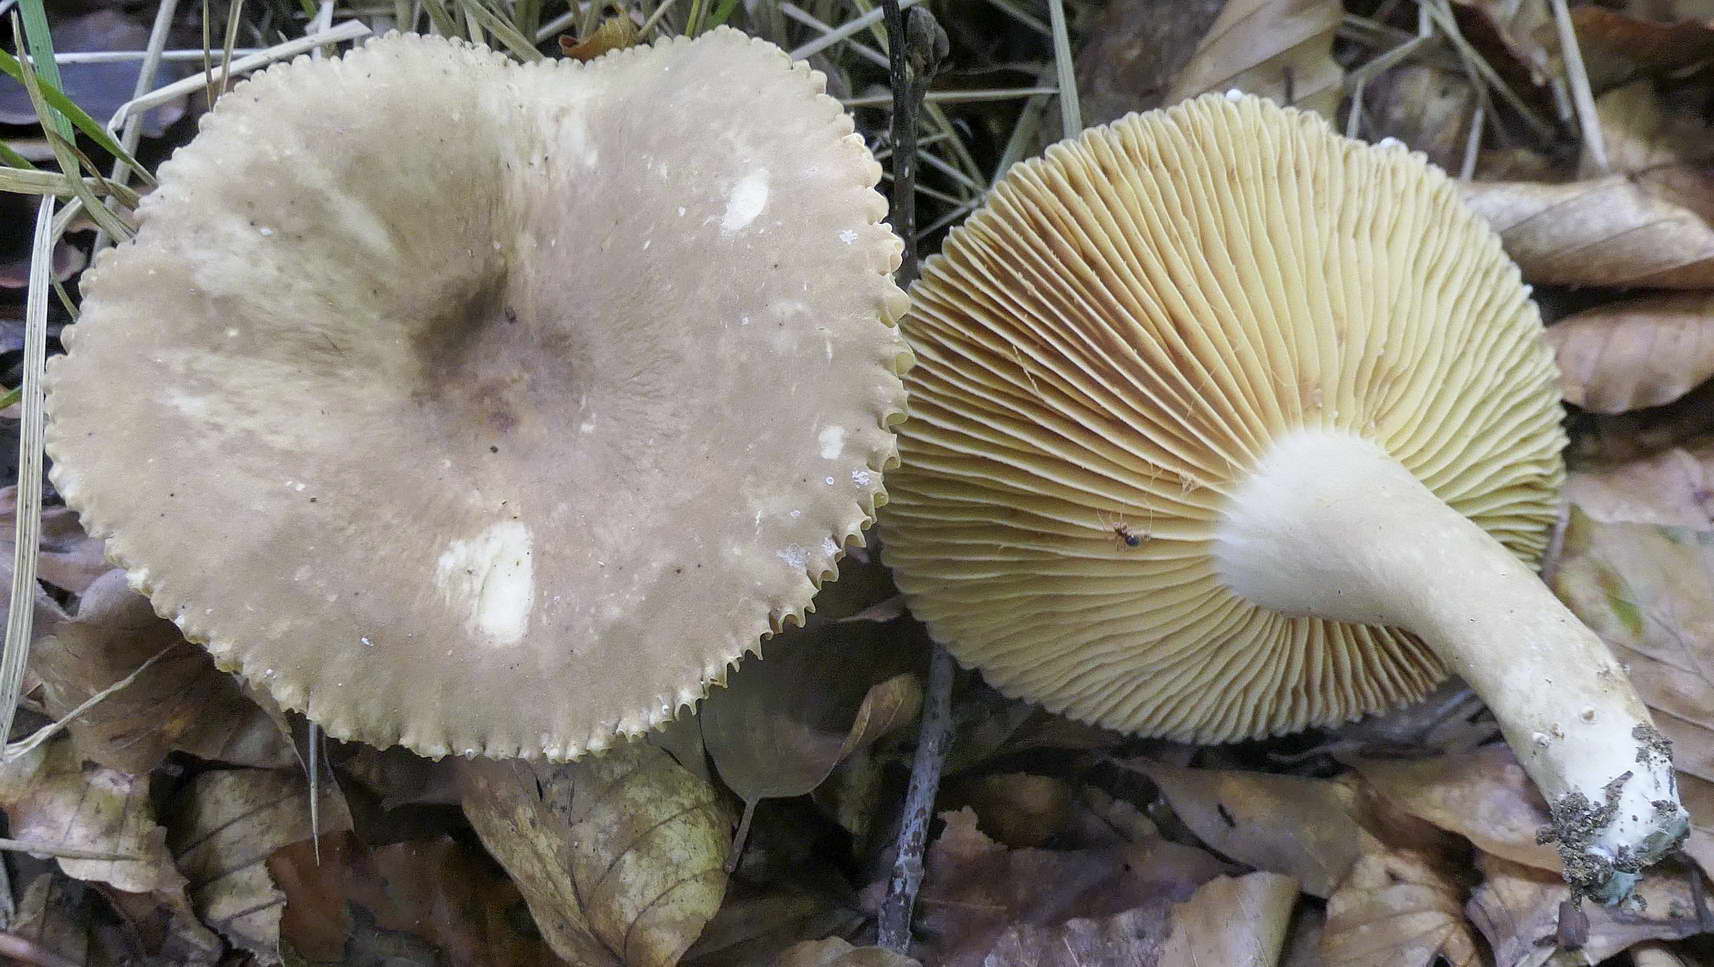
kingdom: Fungi
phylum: Basidiomycota
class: Agaricomycetes
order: Russulales
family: Russulaceae
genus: Lactarius
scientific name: Lactarius
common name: mælkehat
